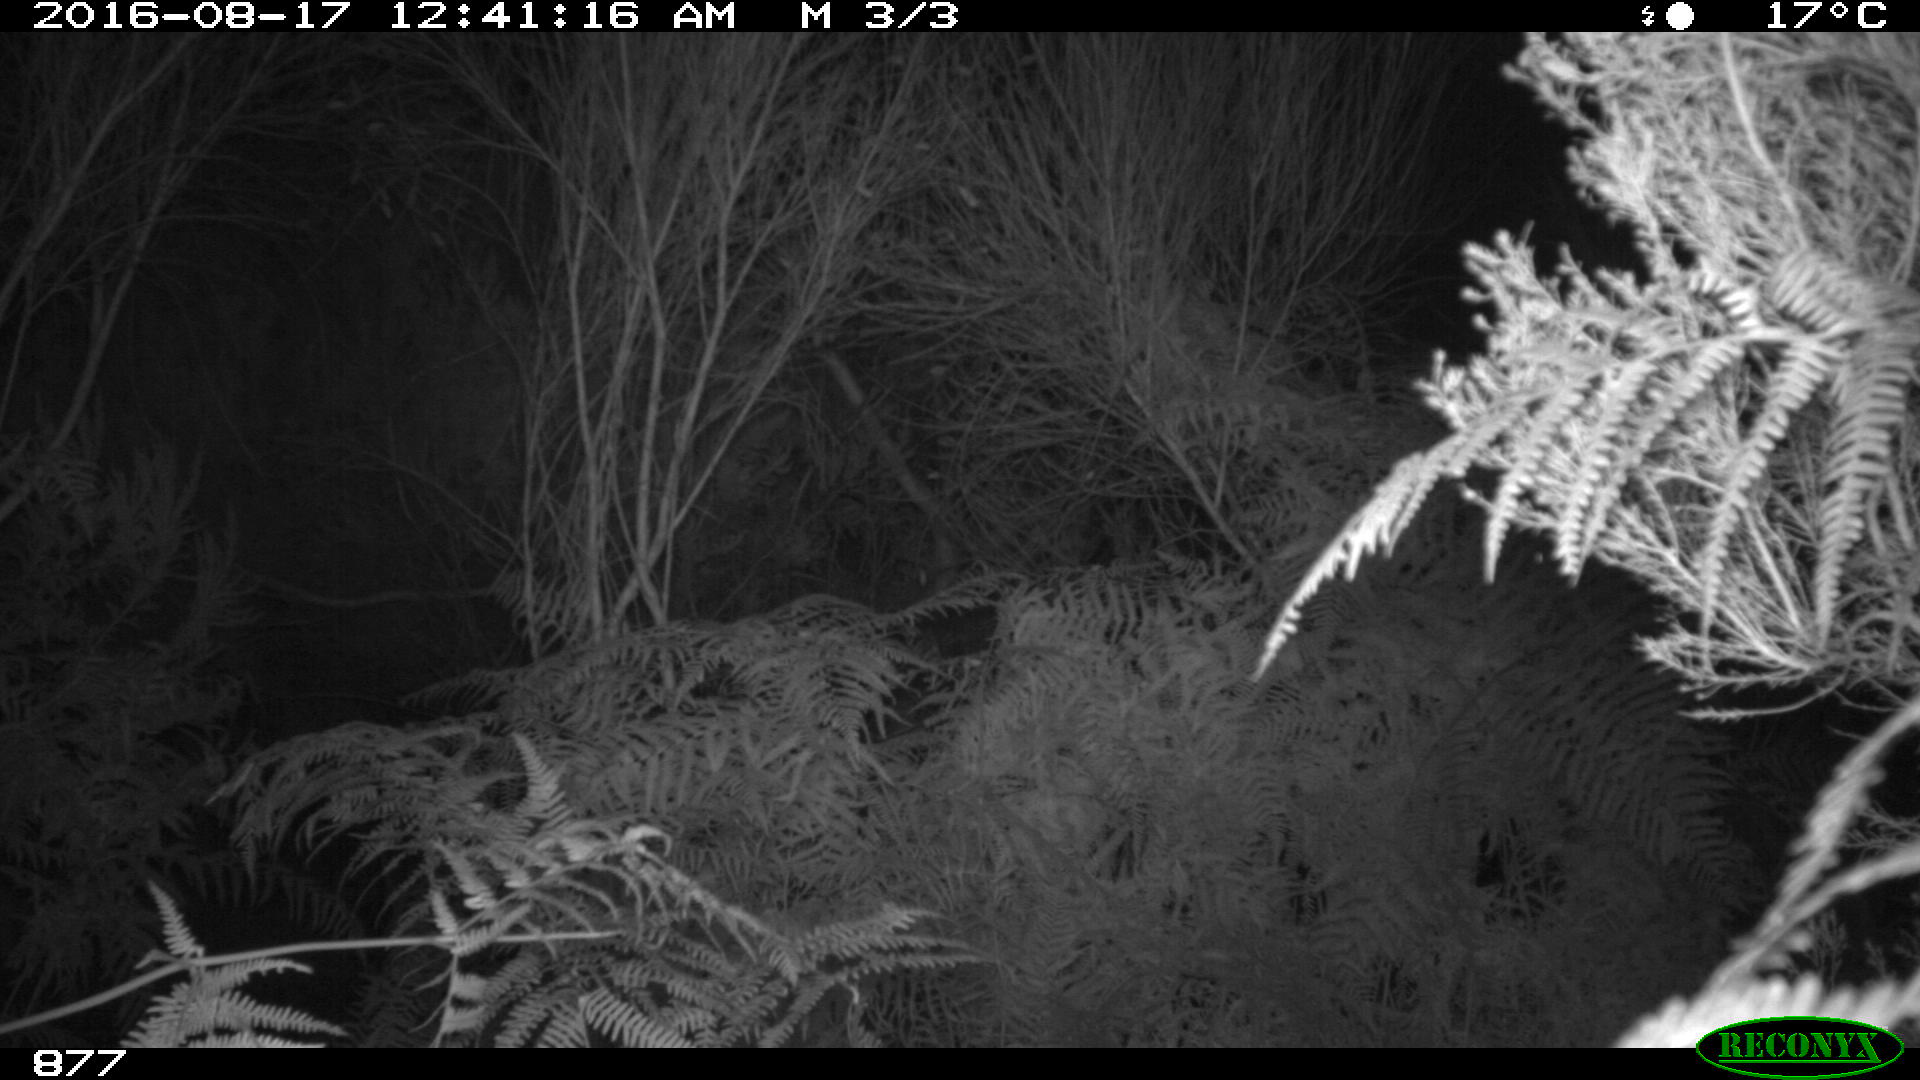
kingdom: Animalia
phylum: Chordata
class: Mammalia
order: Perissodactyla
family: Equidae
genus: Equus
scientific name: Equus caballus
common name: Horse
